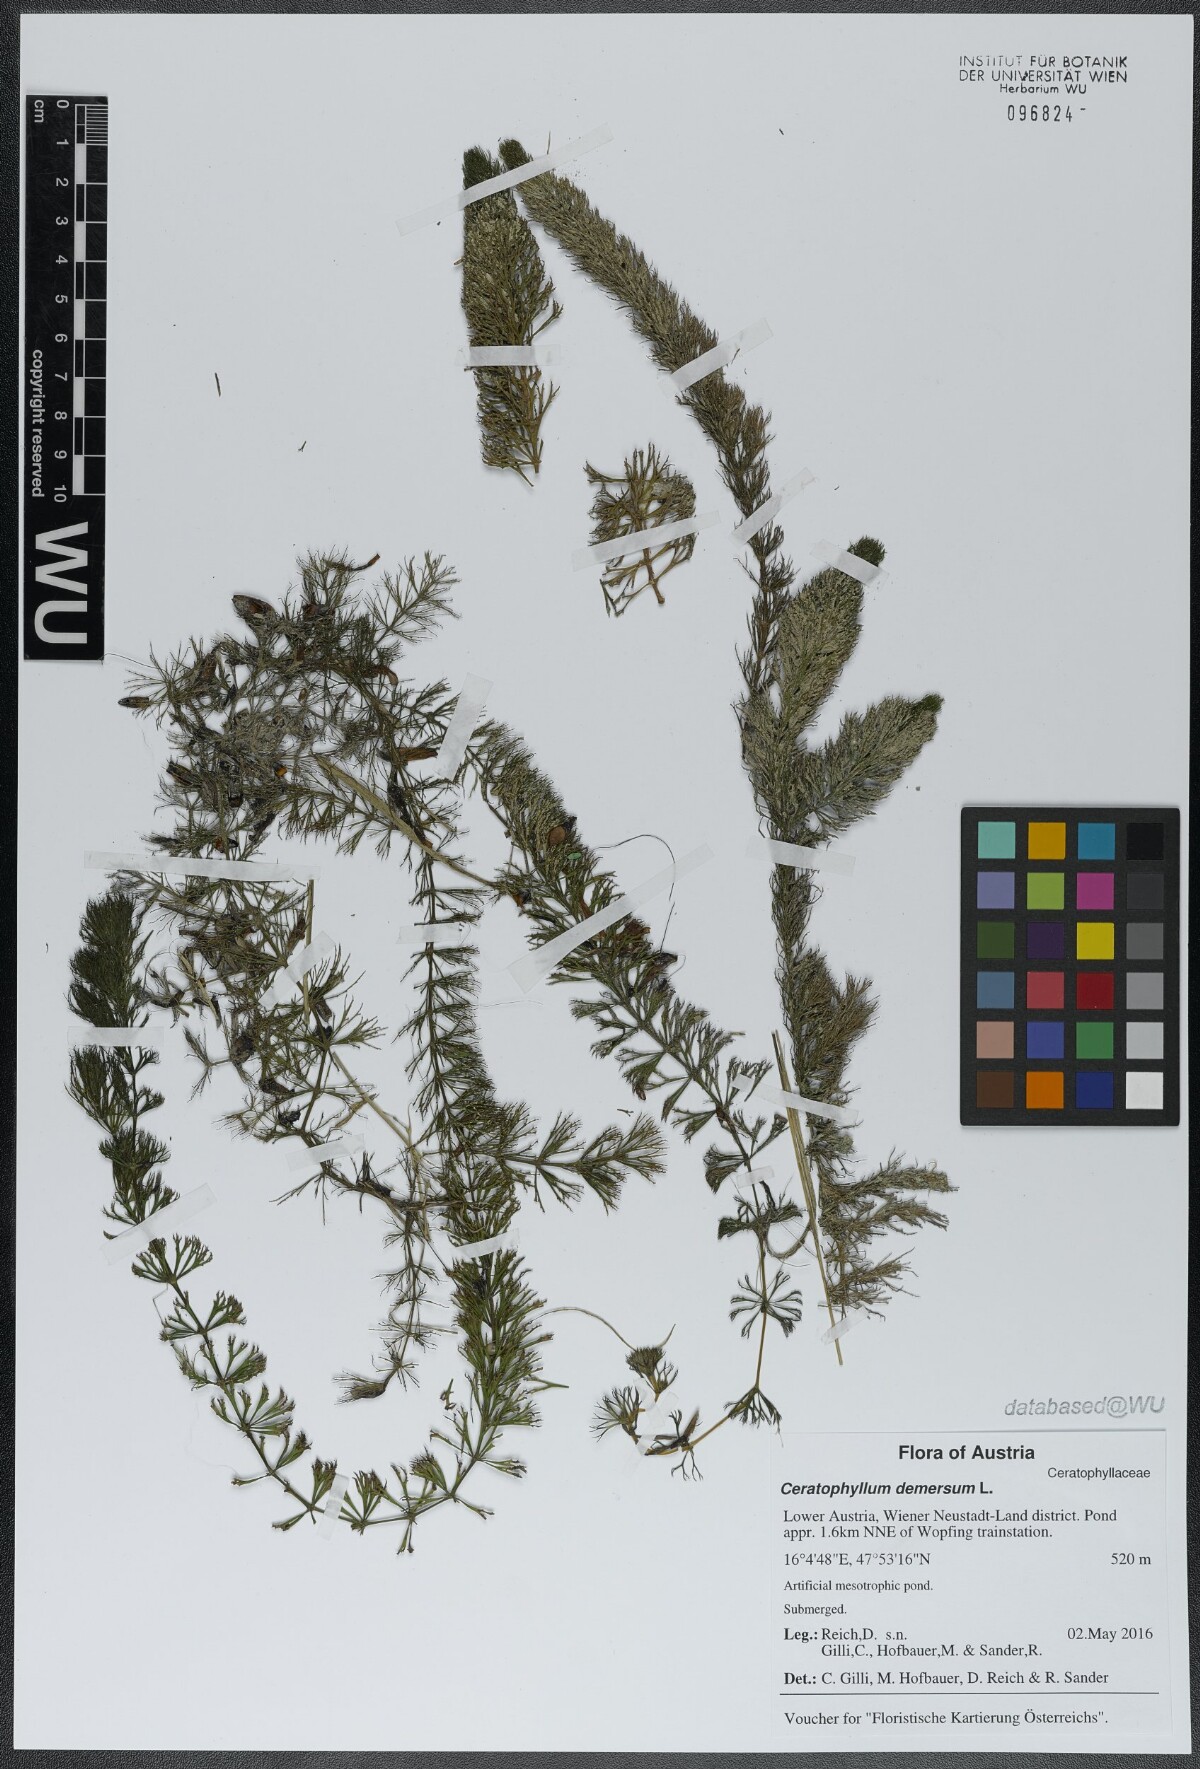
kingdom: Plantae
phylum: Tracheophyta
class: Magnoliopsida
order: Ceratophyllales
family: Ceratophyllaceae
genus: Ceratophyllum
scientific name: Ceratophyllum demersum
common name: Rigid hornwort
